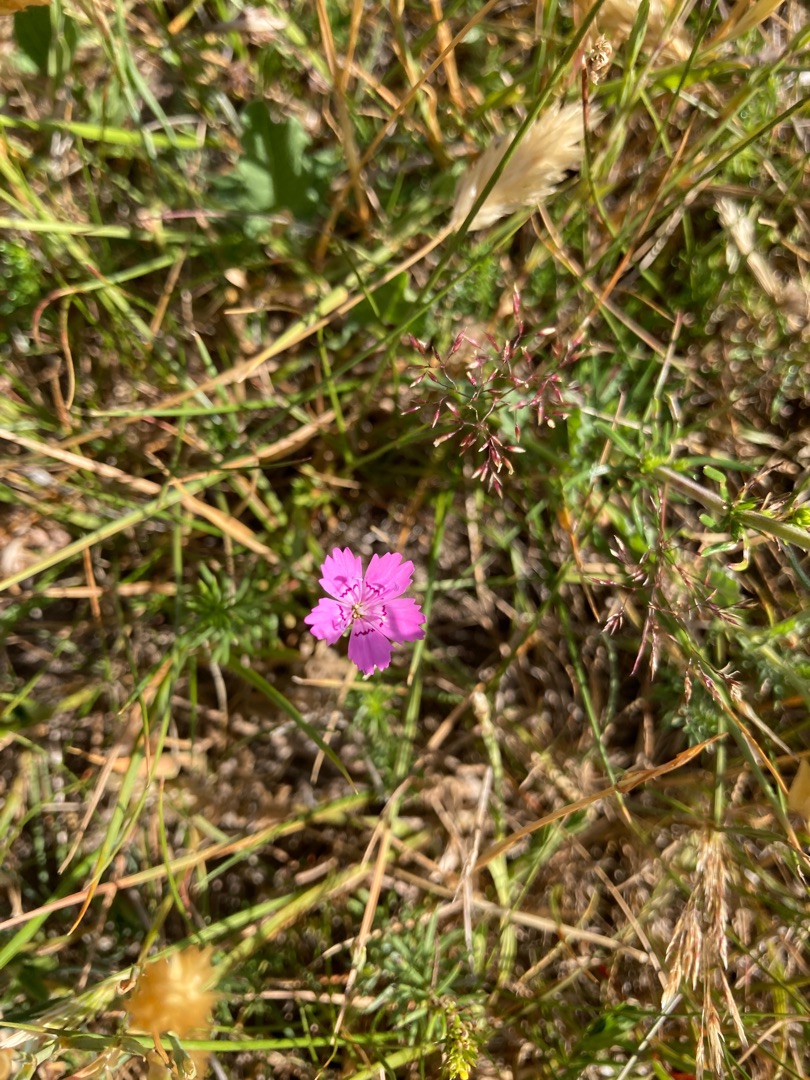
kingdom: Plantae
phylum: Tracheophyta
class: Magnoliopsida
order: Caryophyllales
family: Caryophyllaceae
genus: Dianthus
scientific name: Dianthus deltoides
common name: Bakke-nellike
